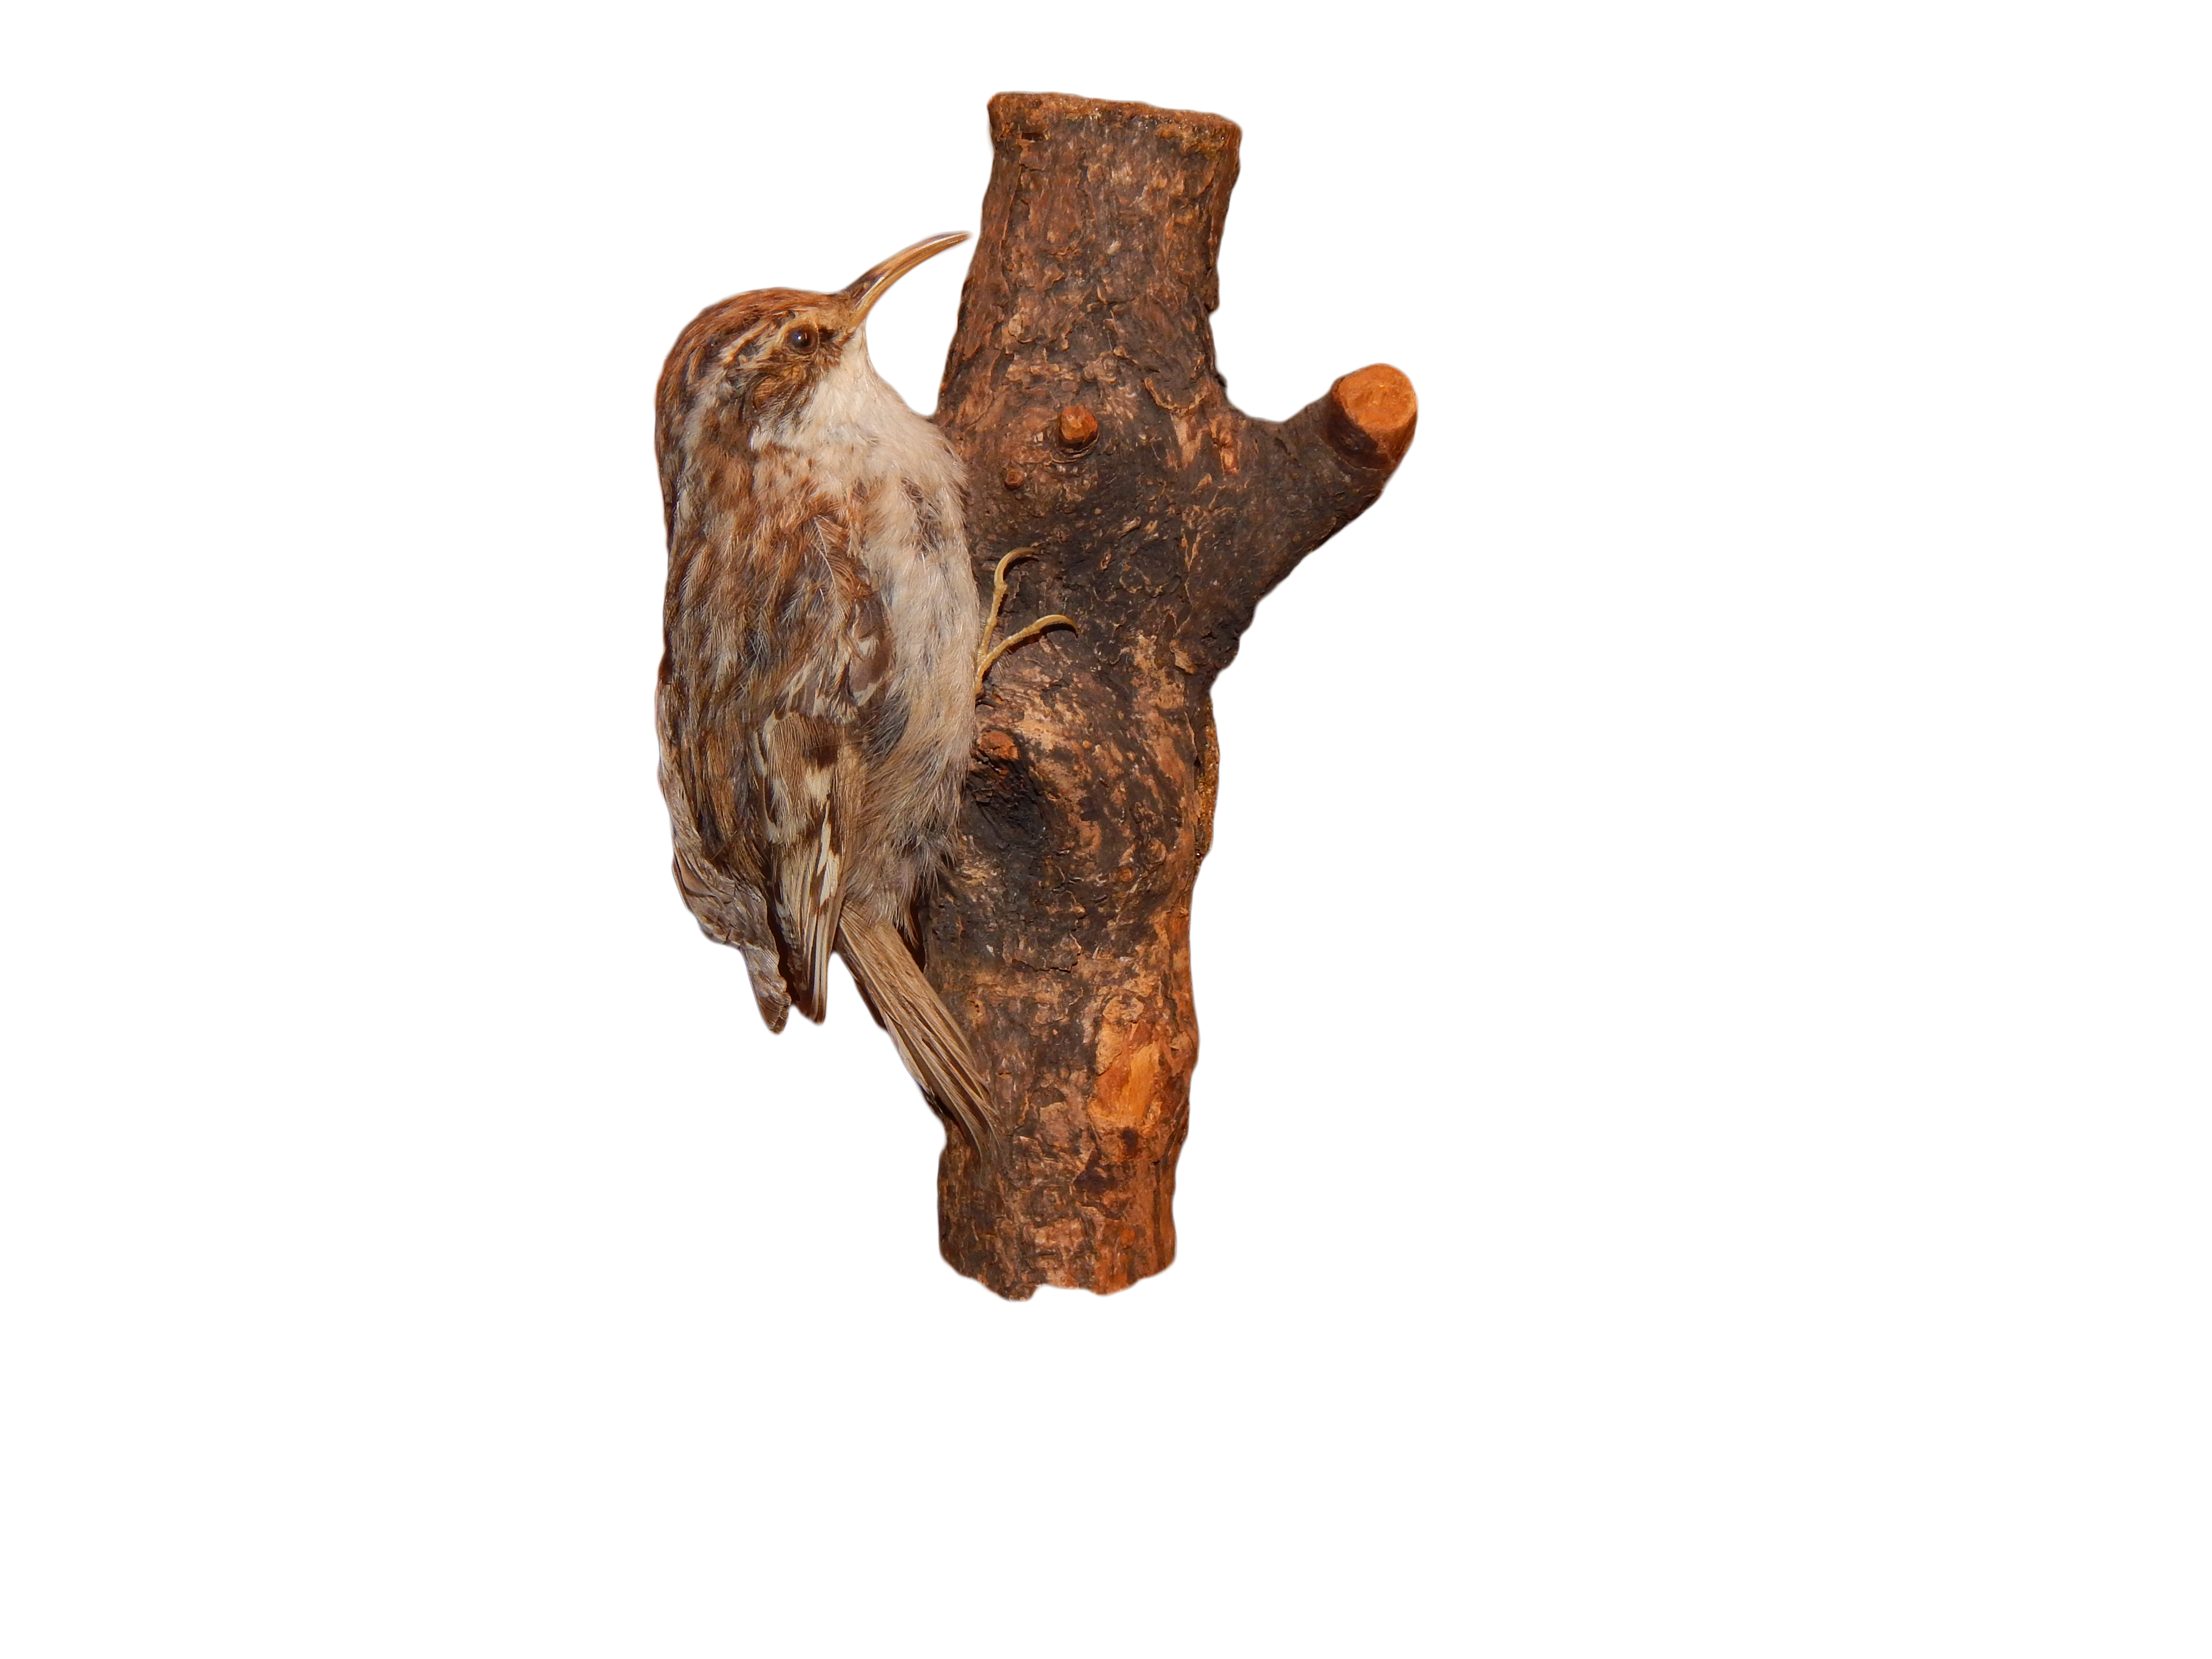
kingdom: Animalia
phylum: Chordata
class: Aves
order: Passeriformes
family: Certhiidae
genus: Certhia
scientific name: Certhia brachydactyla
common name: Short-toed treecreeper
